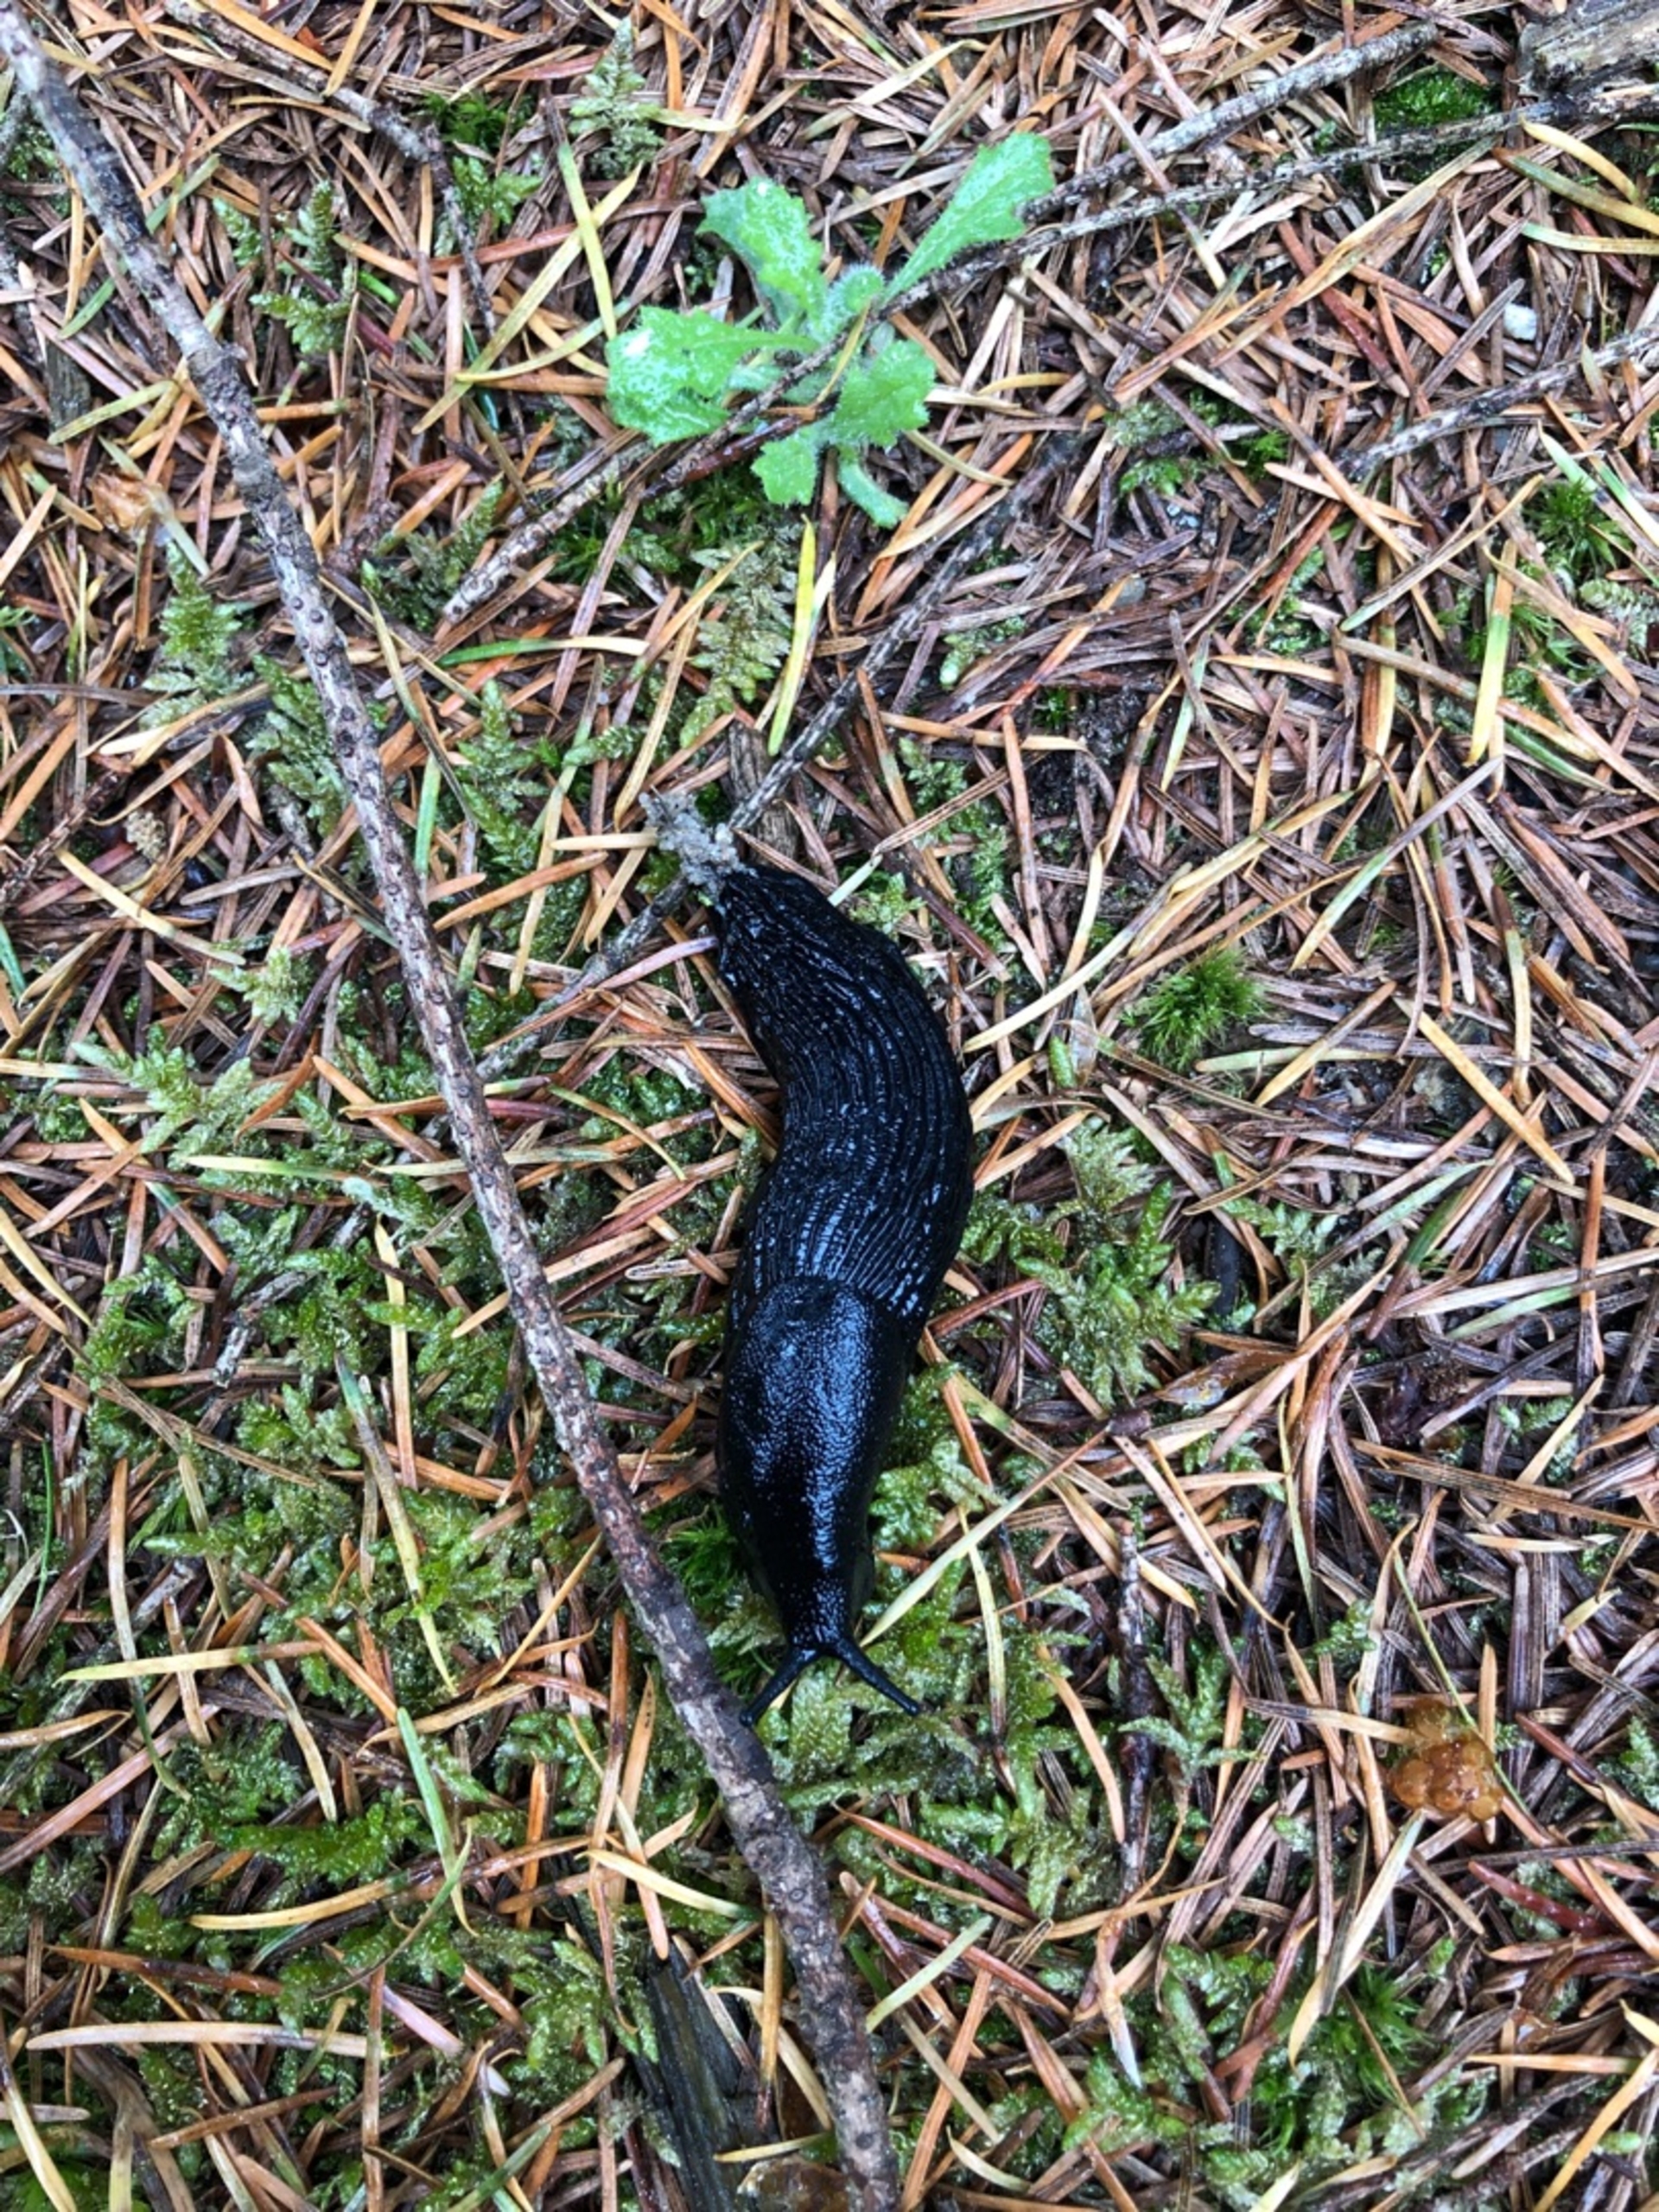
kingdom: Animalia
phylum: Mollusca
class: Gastropoda
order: Stylommatophora
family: Arionidae
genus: Arion
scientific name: Arion ater
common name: Sort skovsnegl
